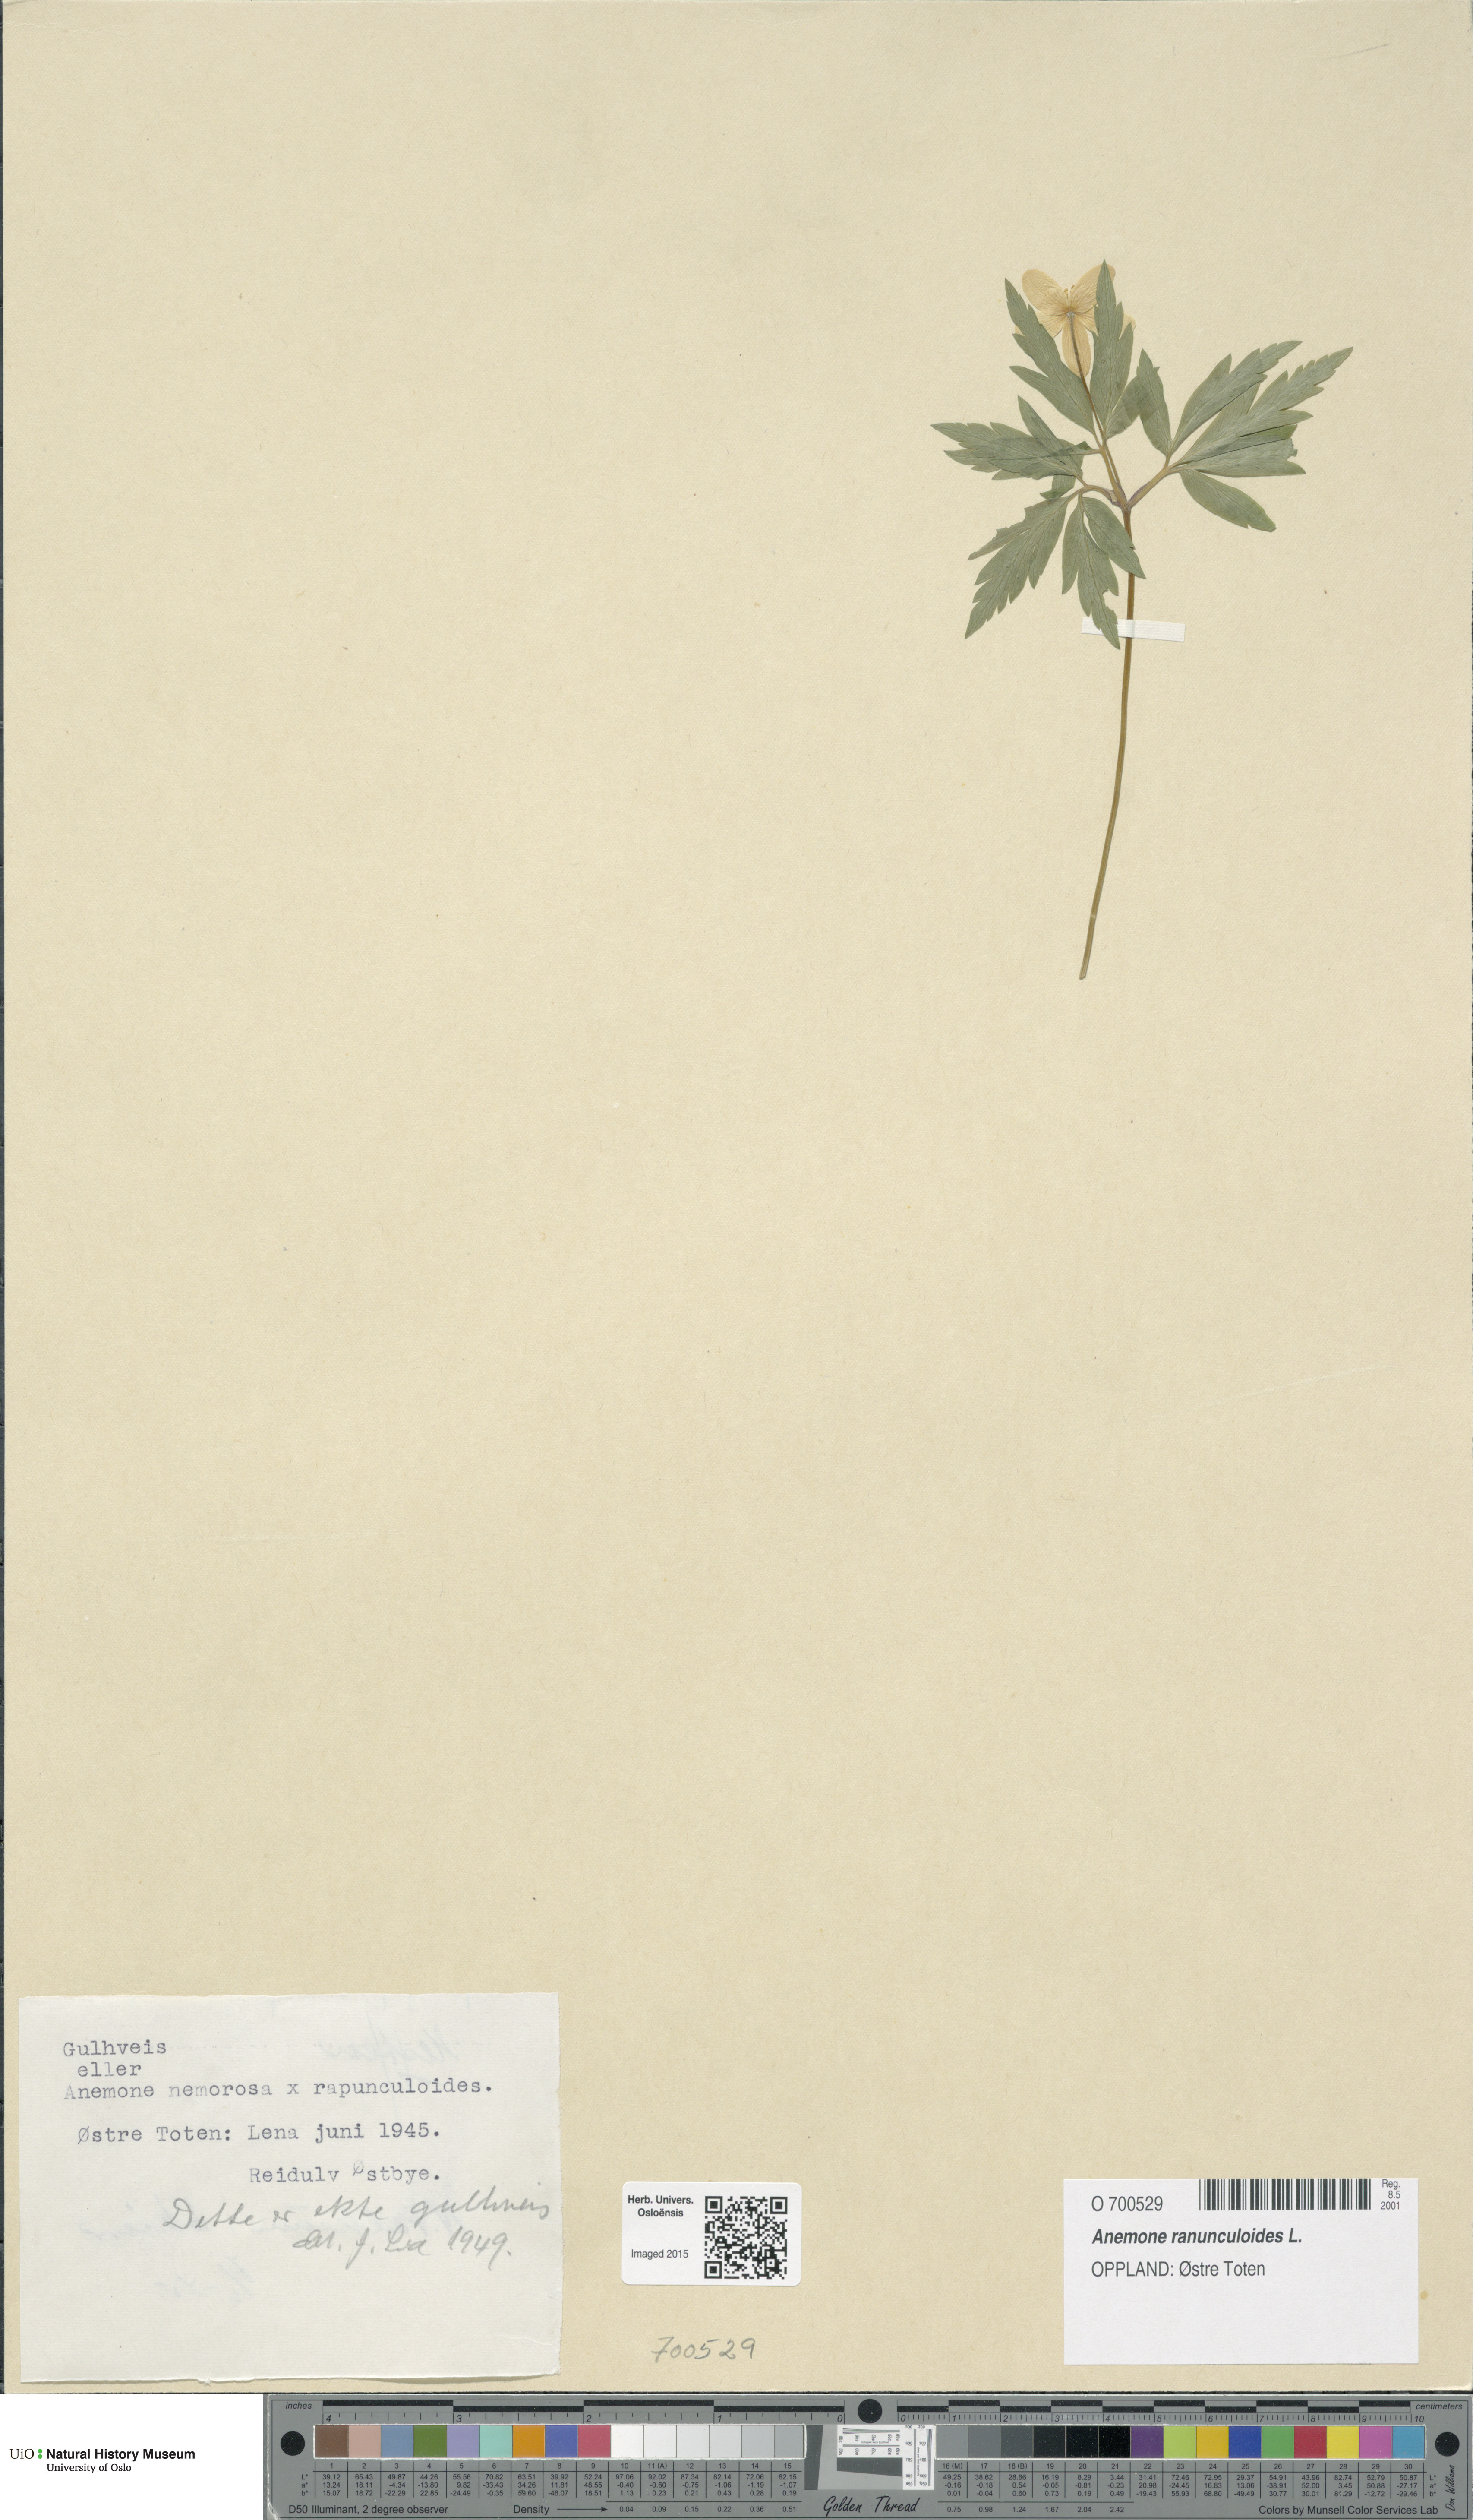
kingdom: Plantae
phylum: Tracheophyta
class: Magnoliopsida
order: Ranunculales
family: Ranunculaceae
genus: Anemone
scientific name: Anemone ranunculoides
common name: Yellow anemone
